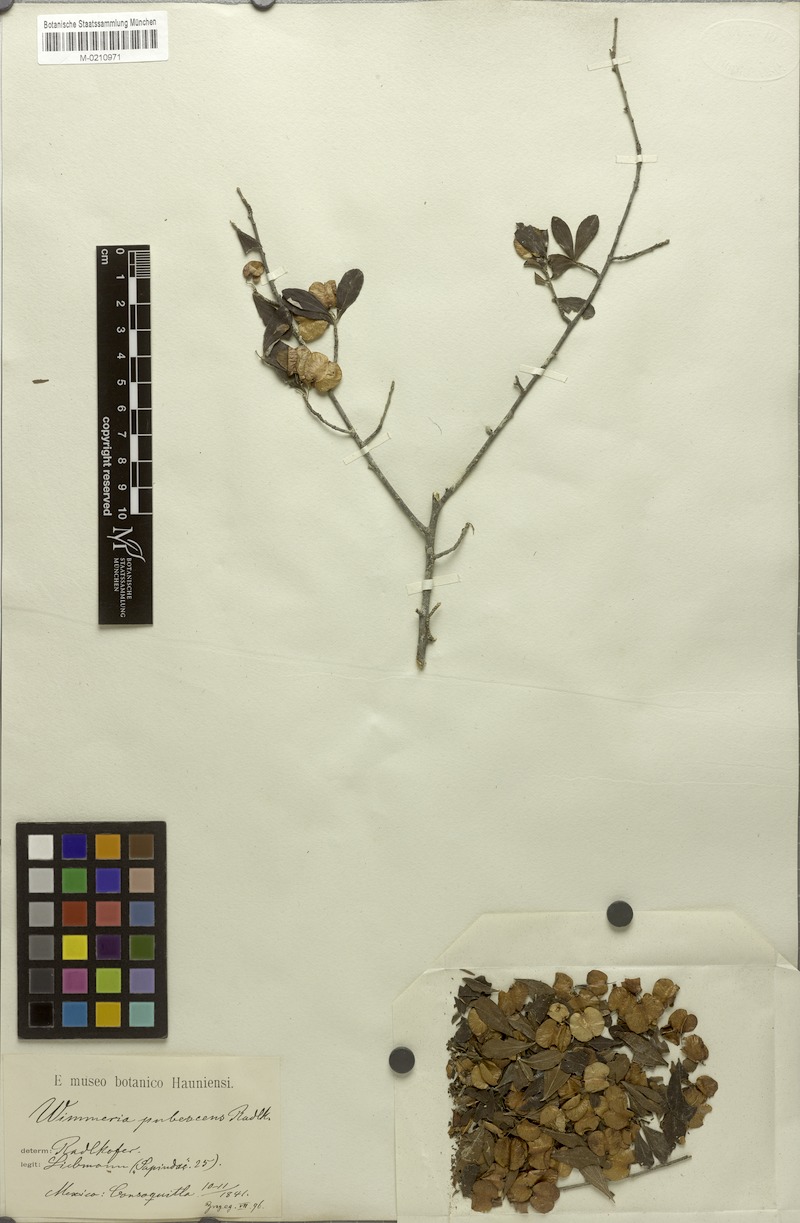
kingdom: Plantae
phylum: Tracheophyta
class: Magnoliopsida
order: Celastrales
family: Celastraceae
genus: Wimmeria
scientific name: Wimmeria pubescens
